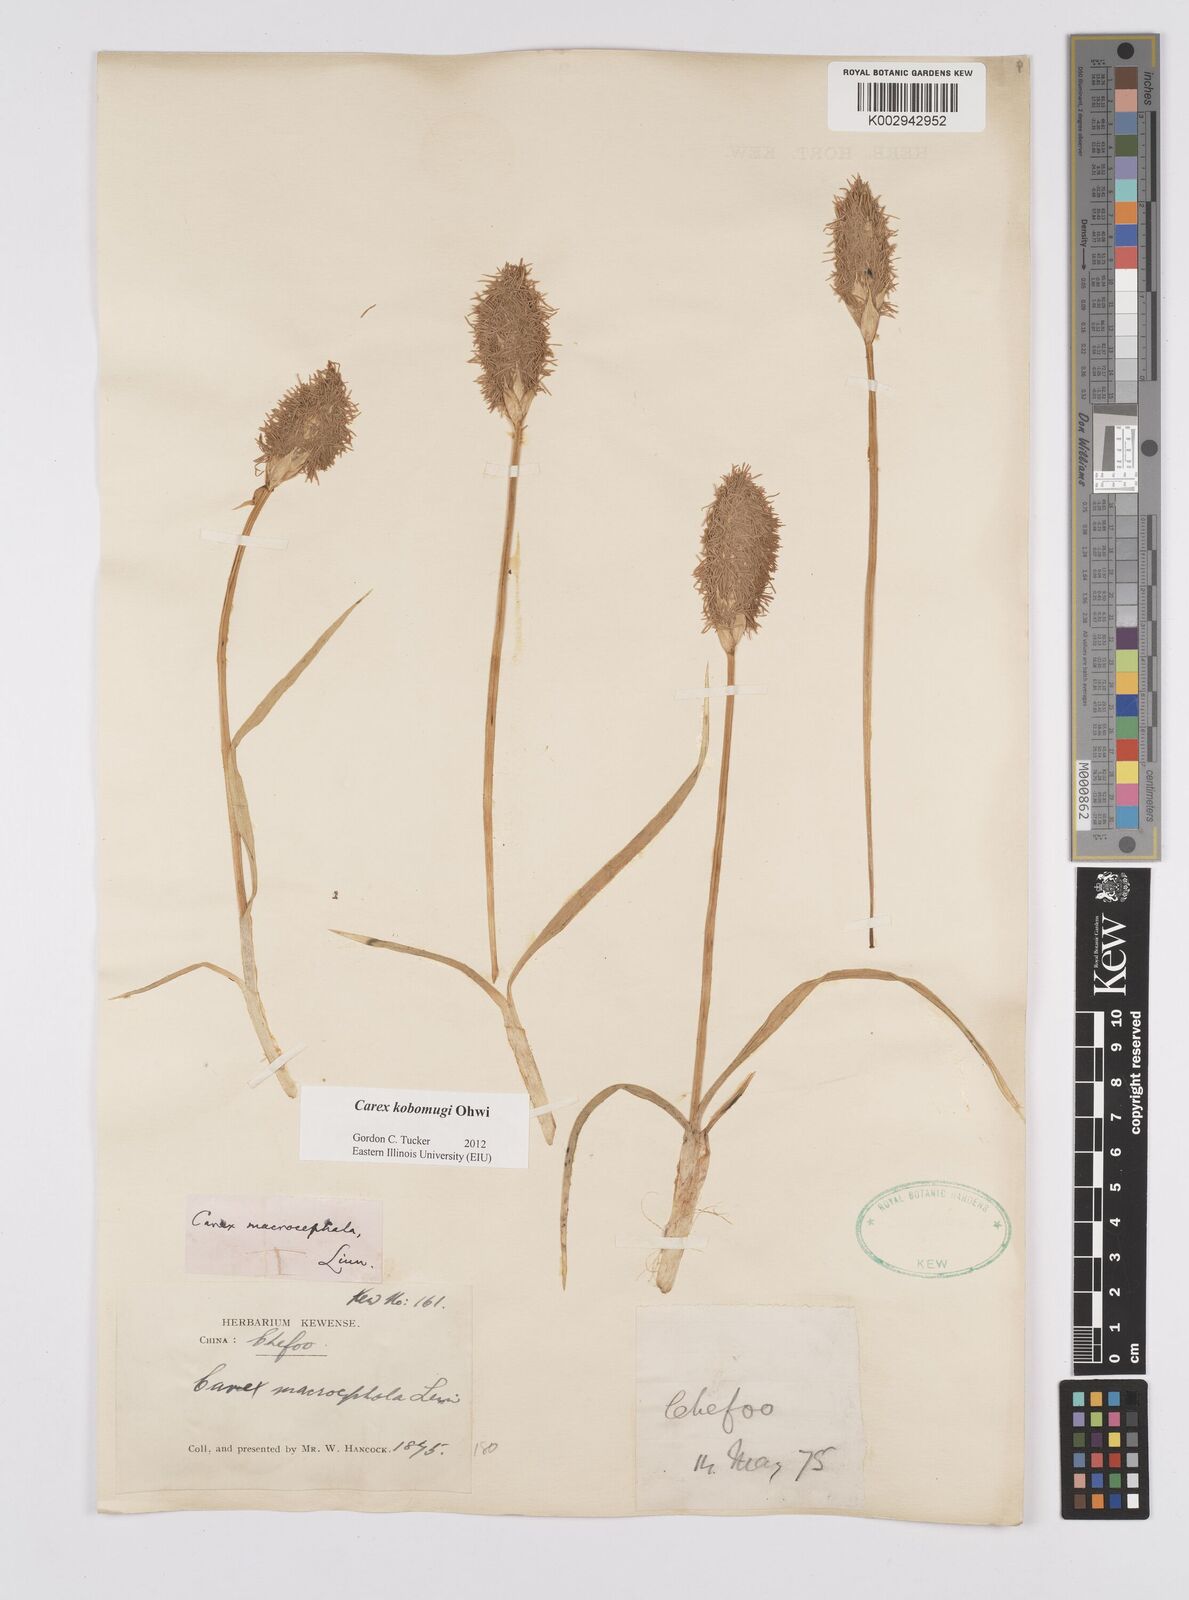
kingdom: Plantae
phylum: Tracheophyta
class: Liliopsida
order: Poales
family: Cyperaceae
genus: Carex
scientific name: Carex kobomugi
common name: Japanese sedge
